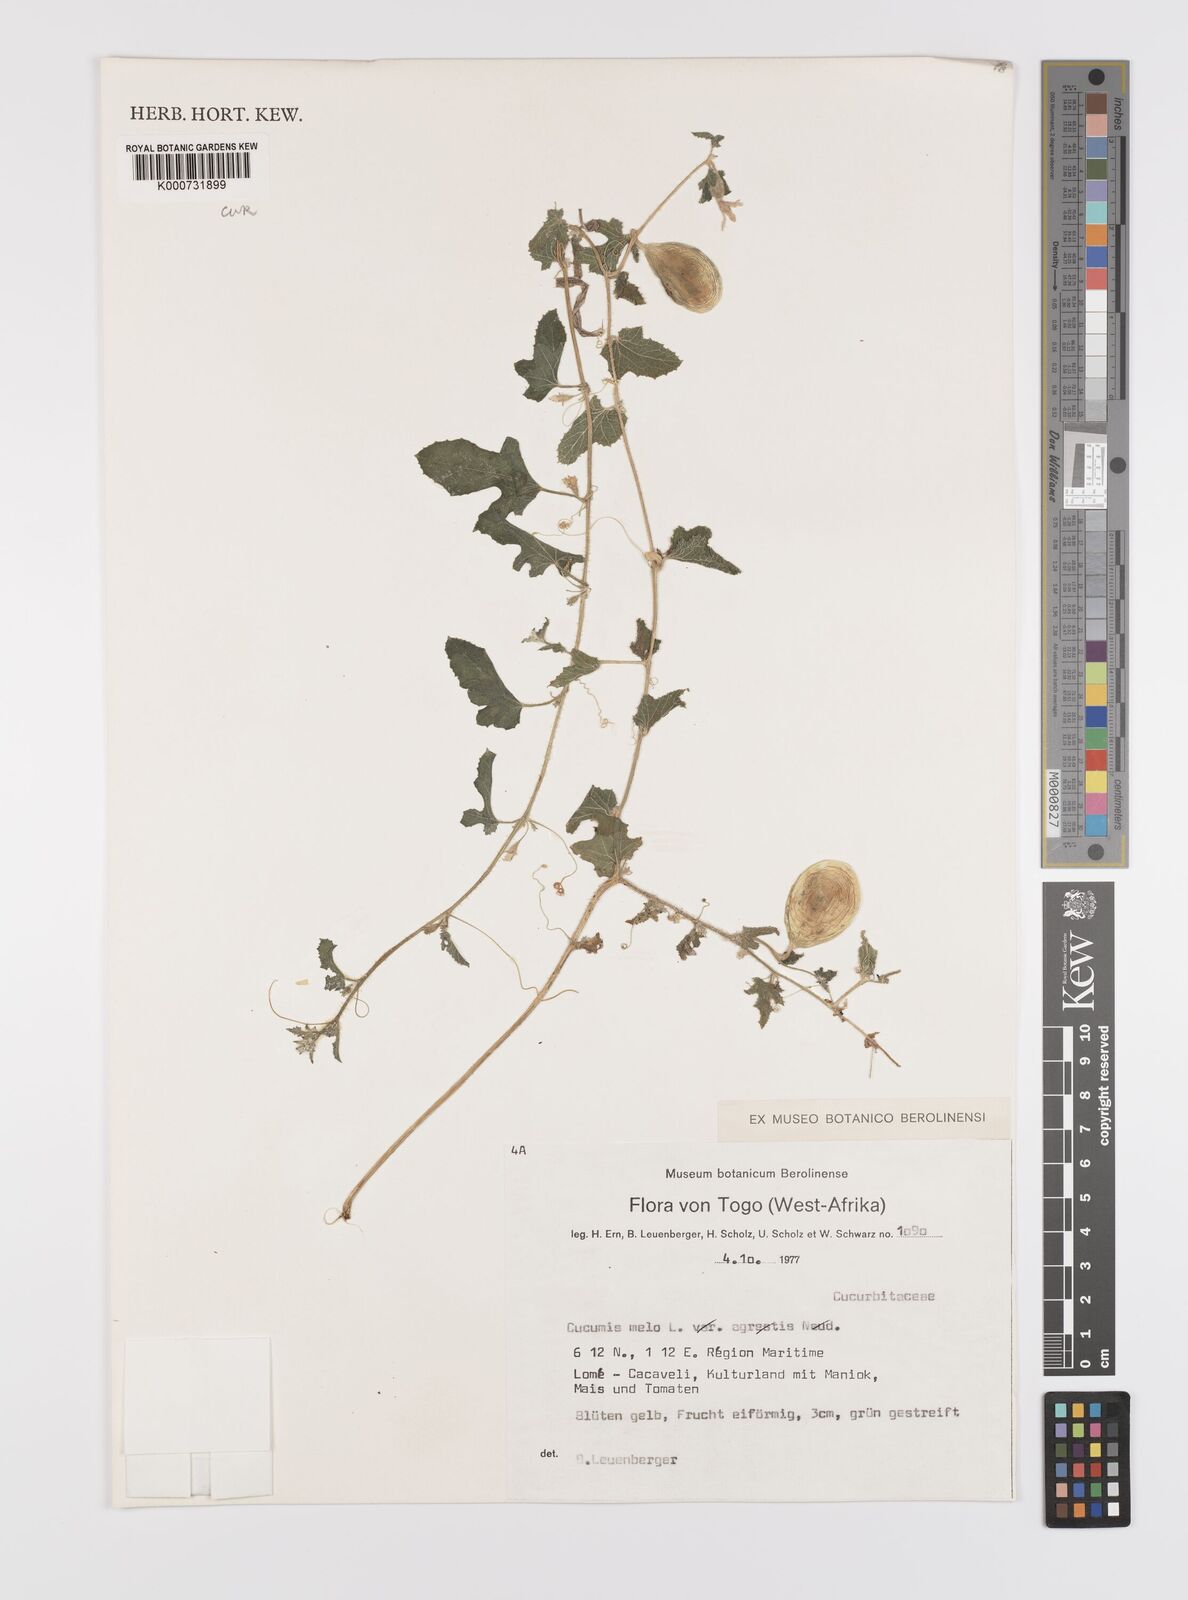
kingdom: Plantae
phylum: Tracheophyta
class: Magnoliopsida
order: Cucurbitales
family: Cucurbitaceae
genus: Cucumis
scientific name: Cucumis melo
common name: Melon
